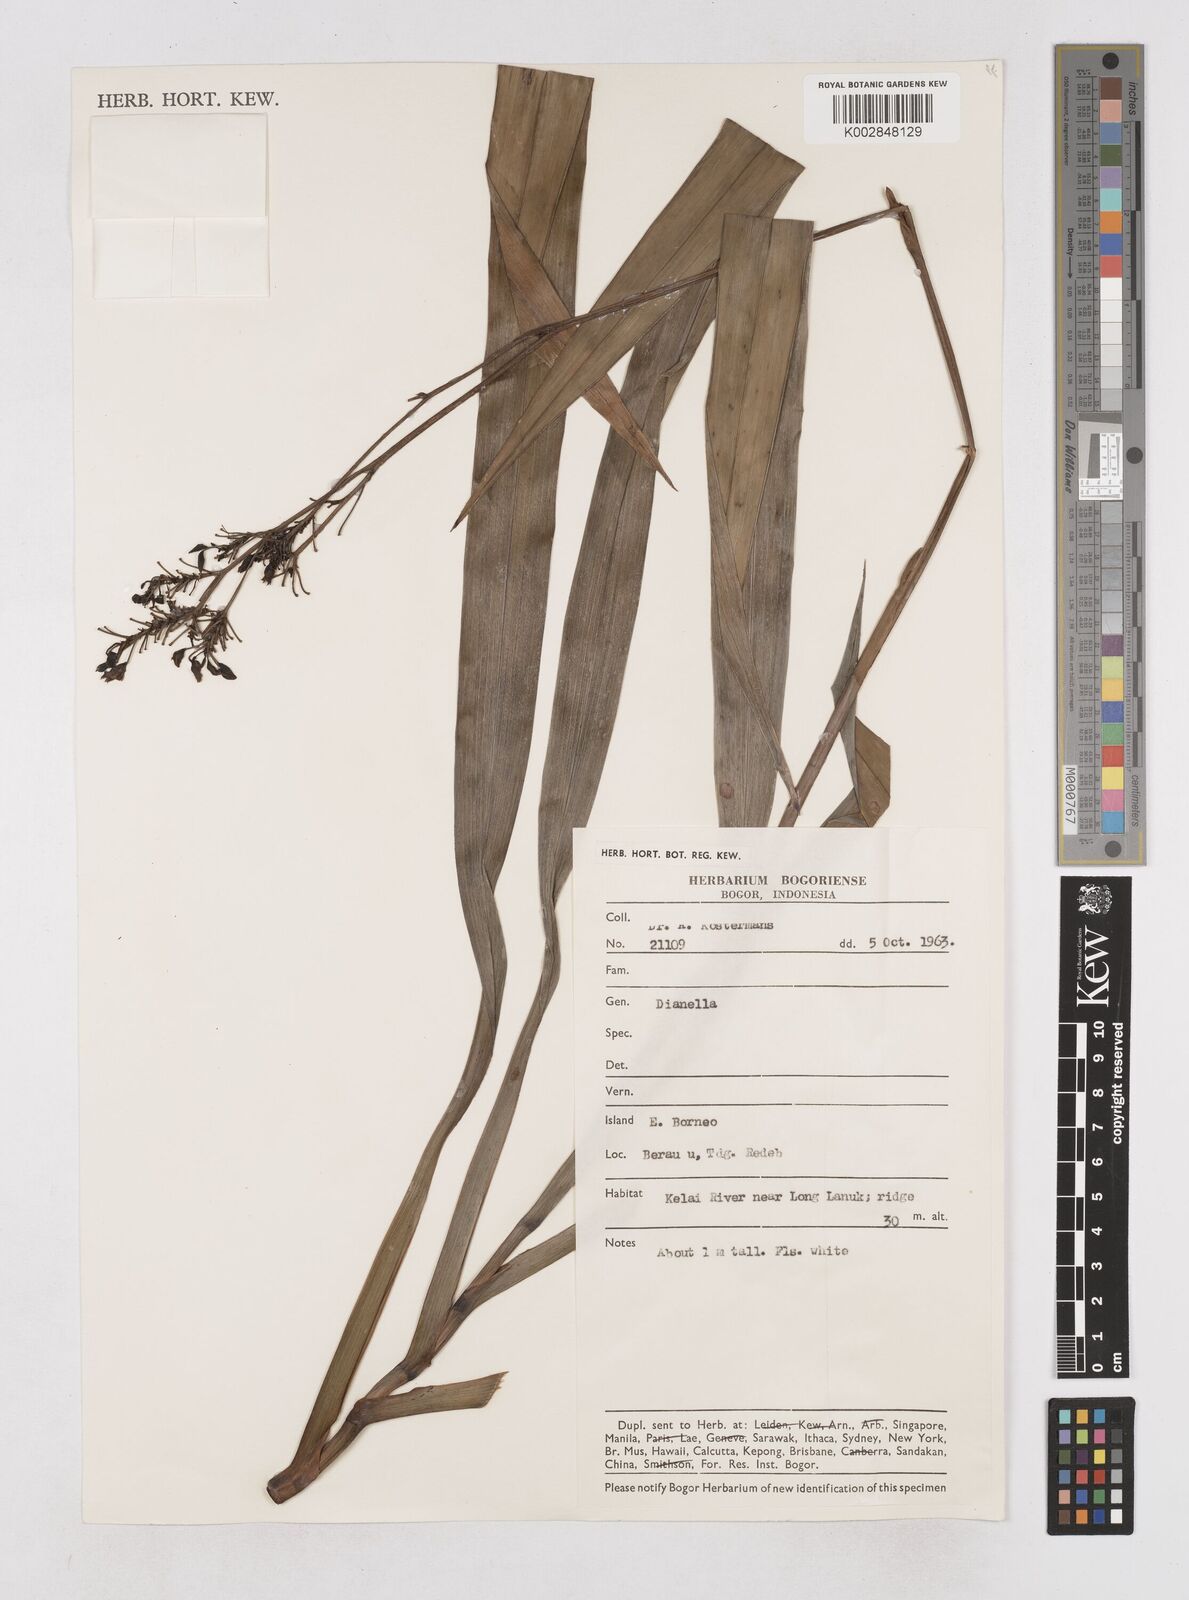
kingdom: Plantae
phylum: Tracheophyta
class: Liliopsida
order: Asparagales
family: Asphodelaceae
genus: Dianella
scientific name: Dianella ensifolia
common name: New zealand lilyplant
